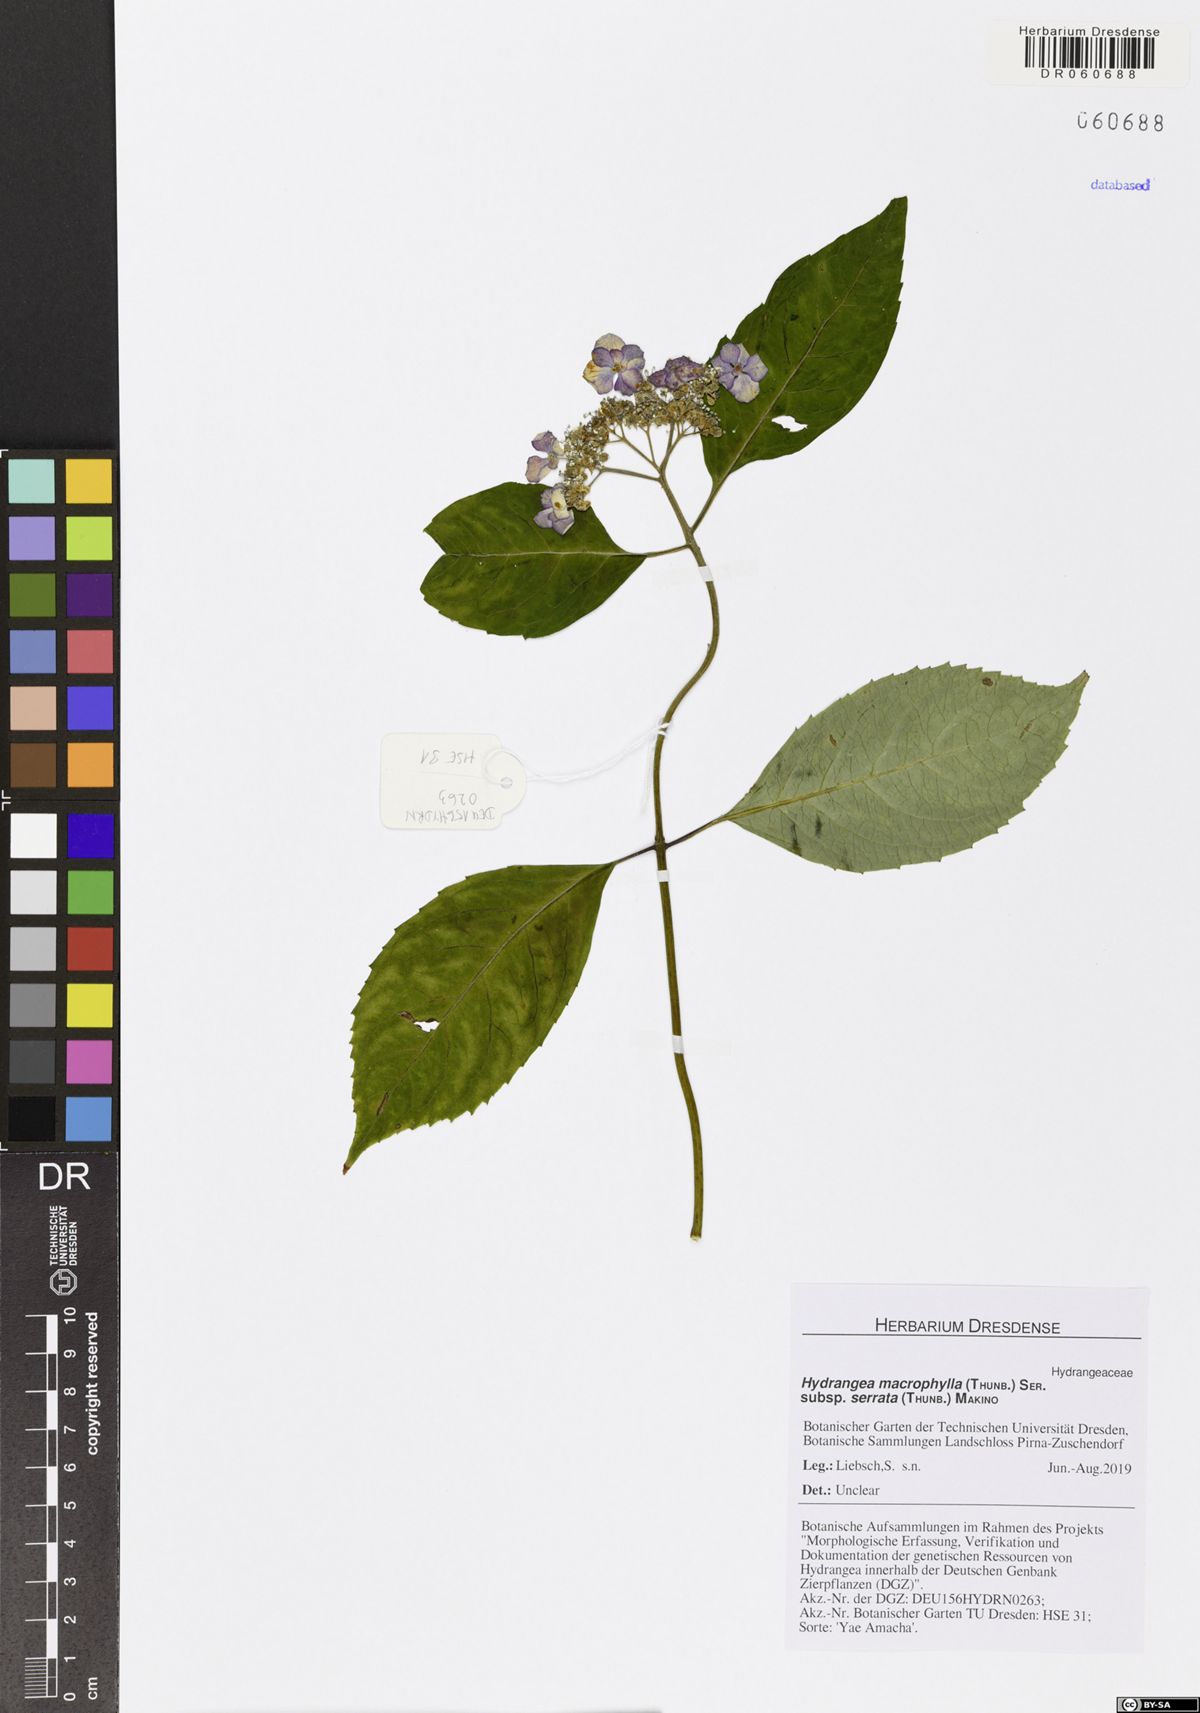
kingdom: Plantae
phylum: Tracheophyta
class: Magnoliopsida
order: Cornales
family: Hydrangeaceae
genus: Hydrangea
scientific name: Hydrangea serrata
